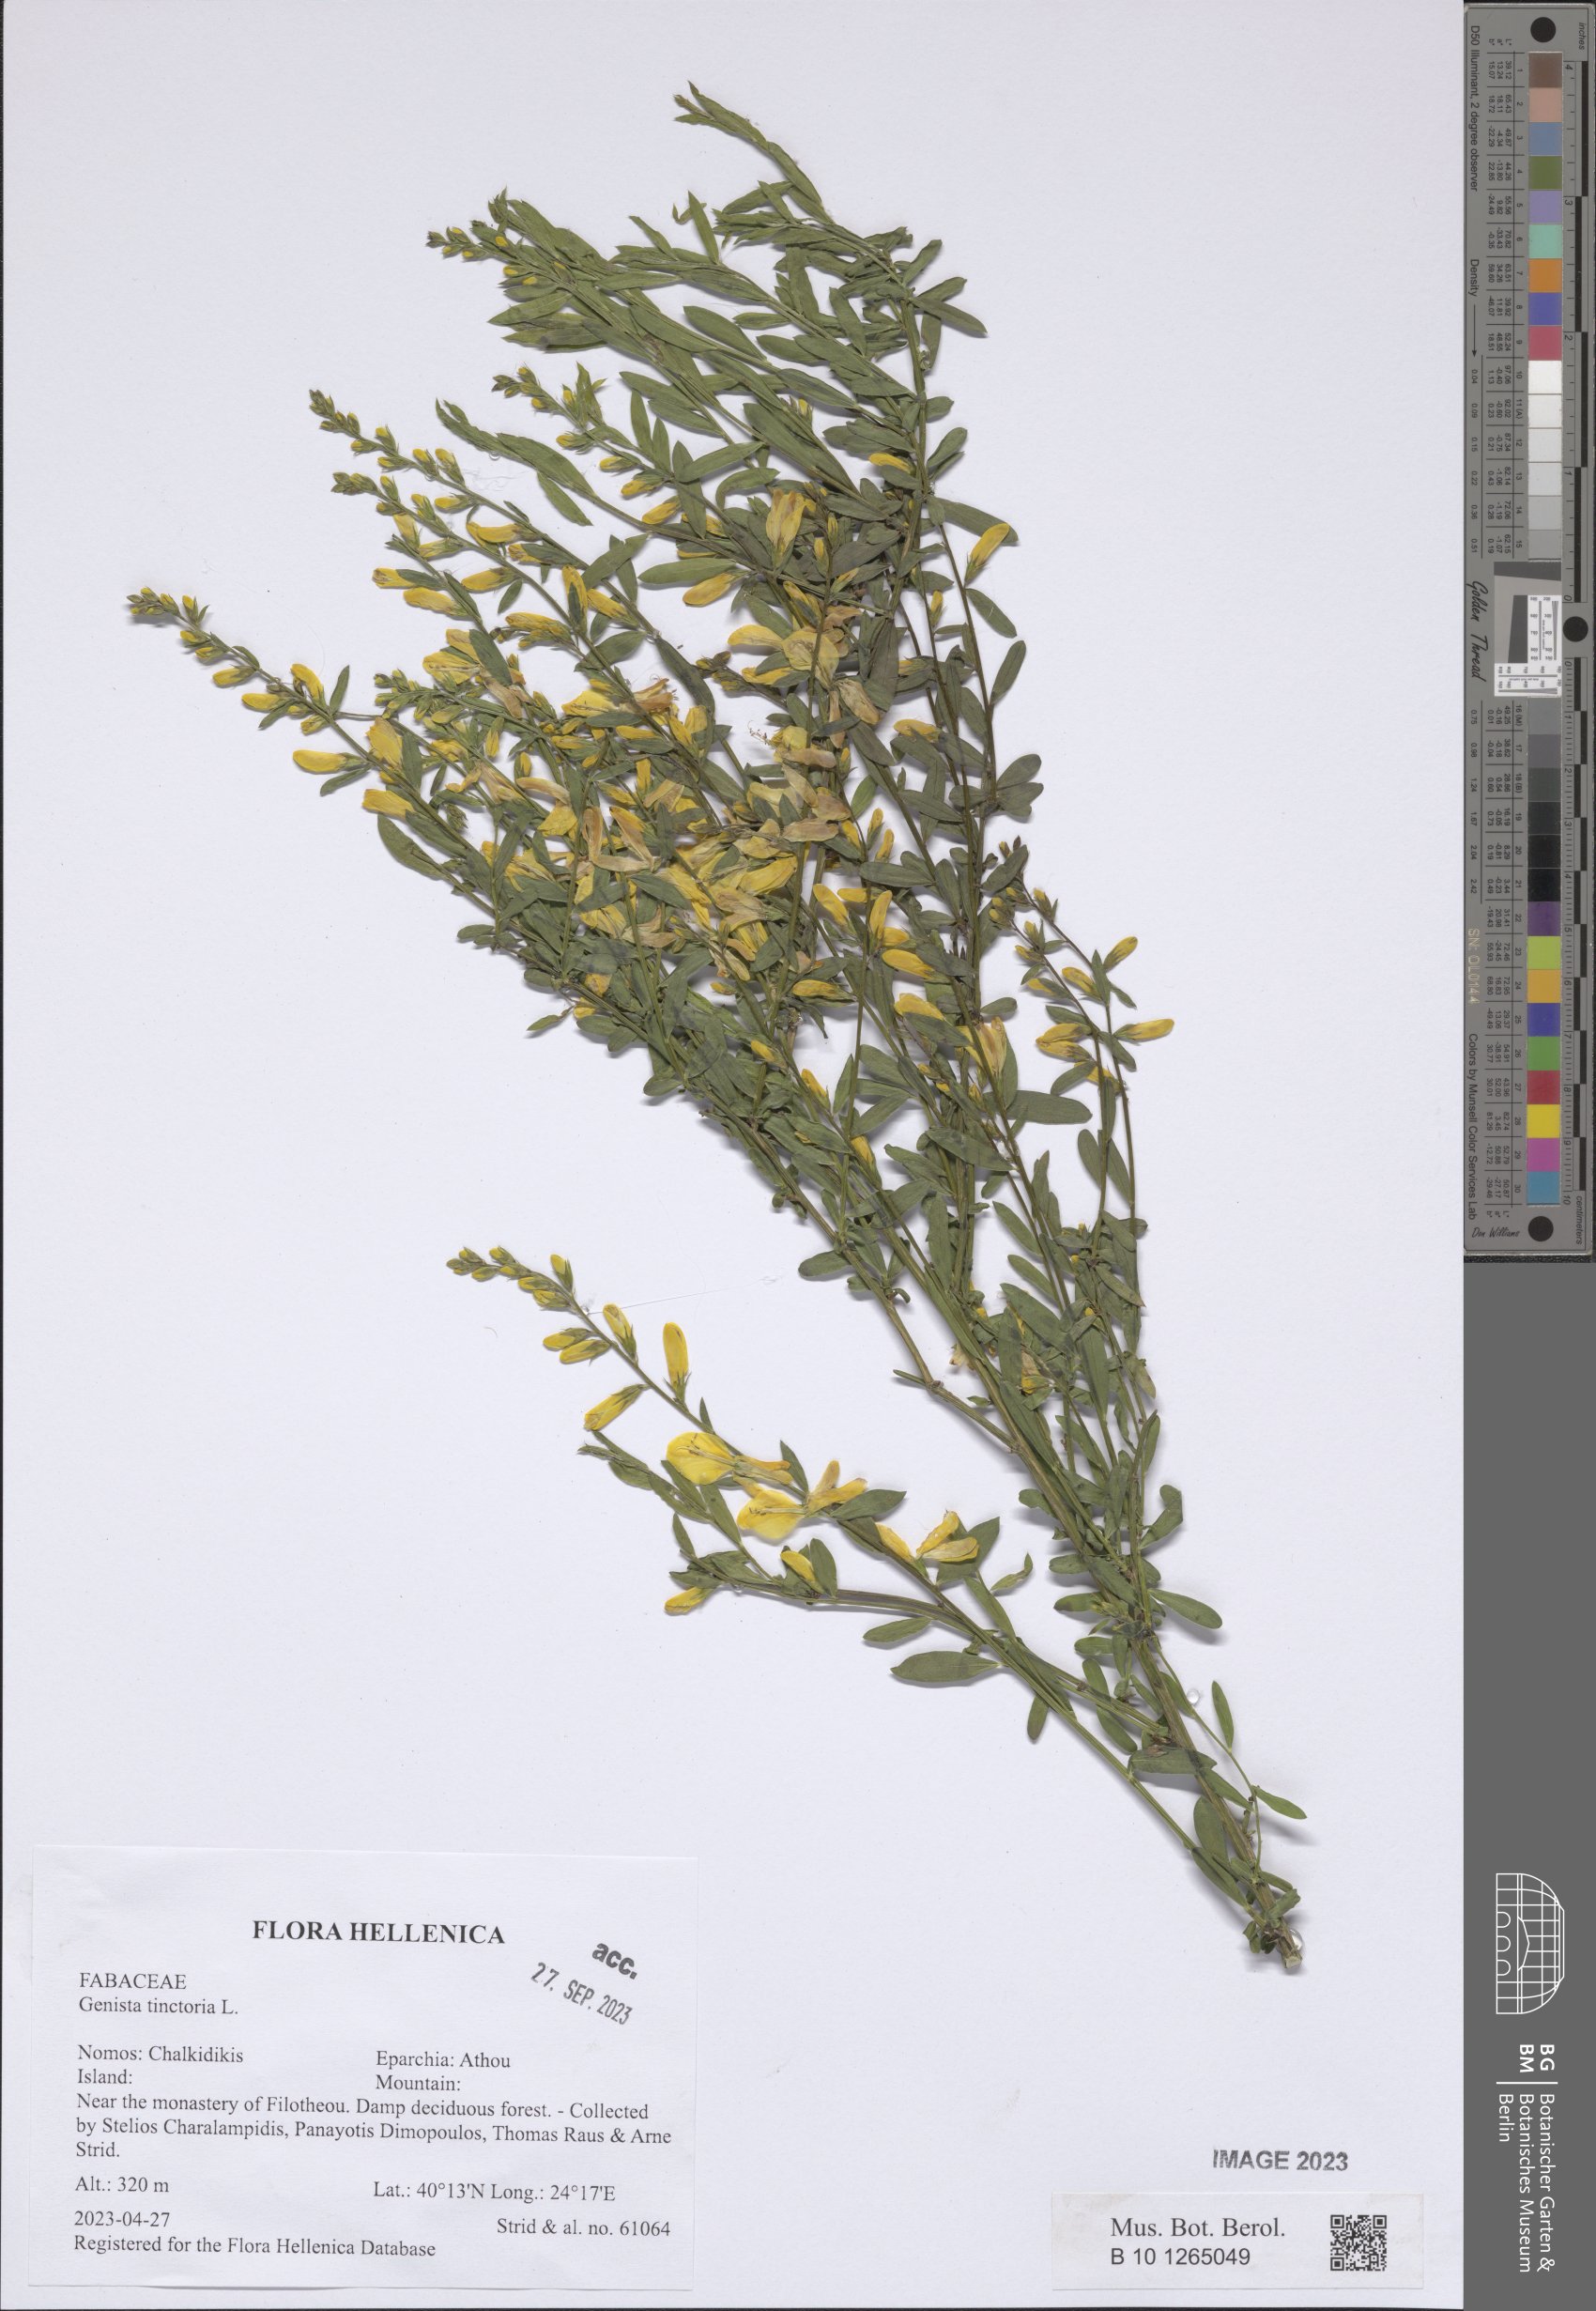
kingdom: Plantae
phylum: Tracheophyta
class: Magnoliopsida
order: Fabales
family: Fabaceae
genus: Genista
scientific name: Genista tinctoria
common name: Dyer's greenweed
